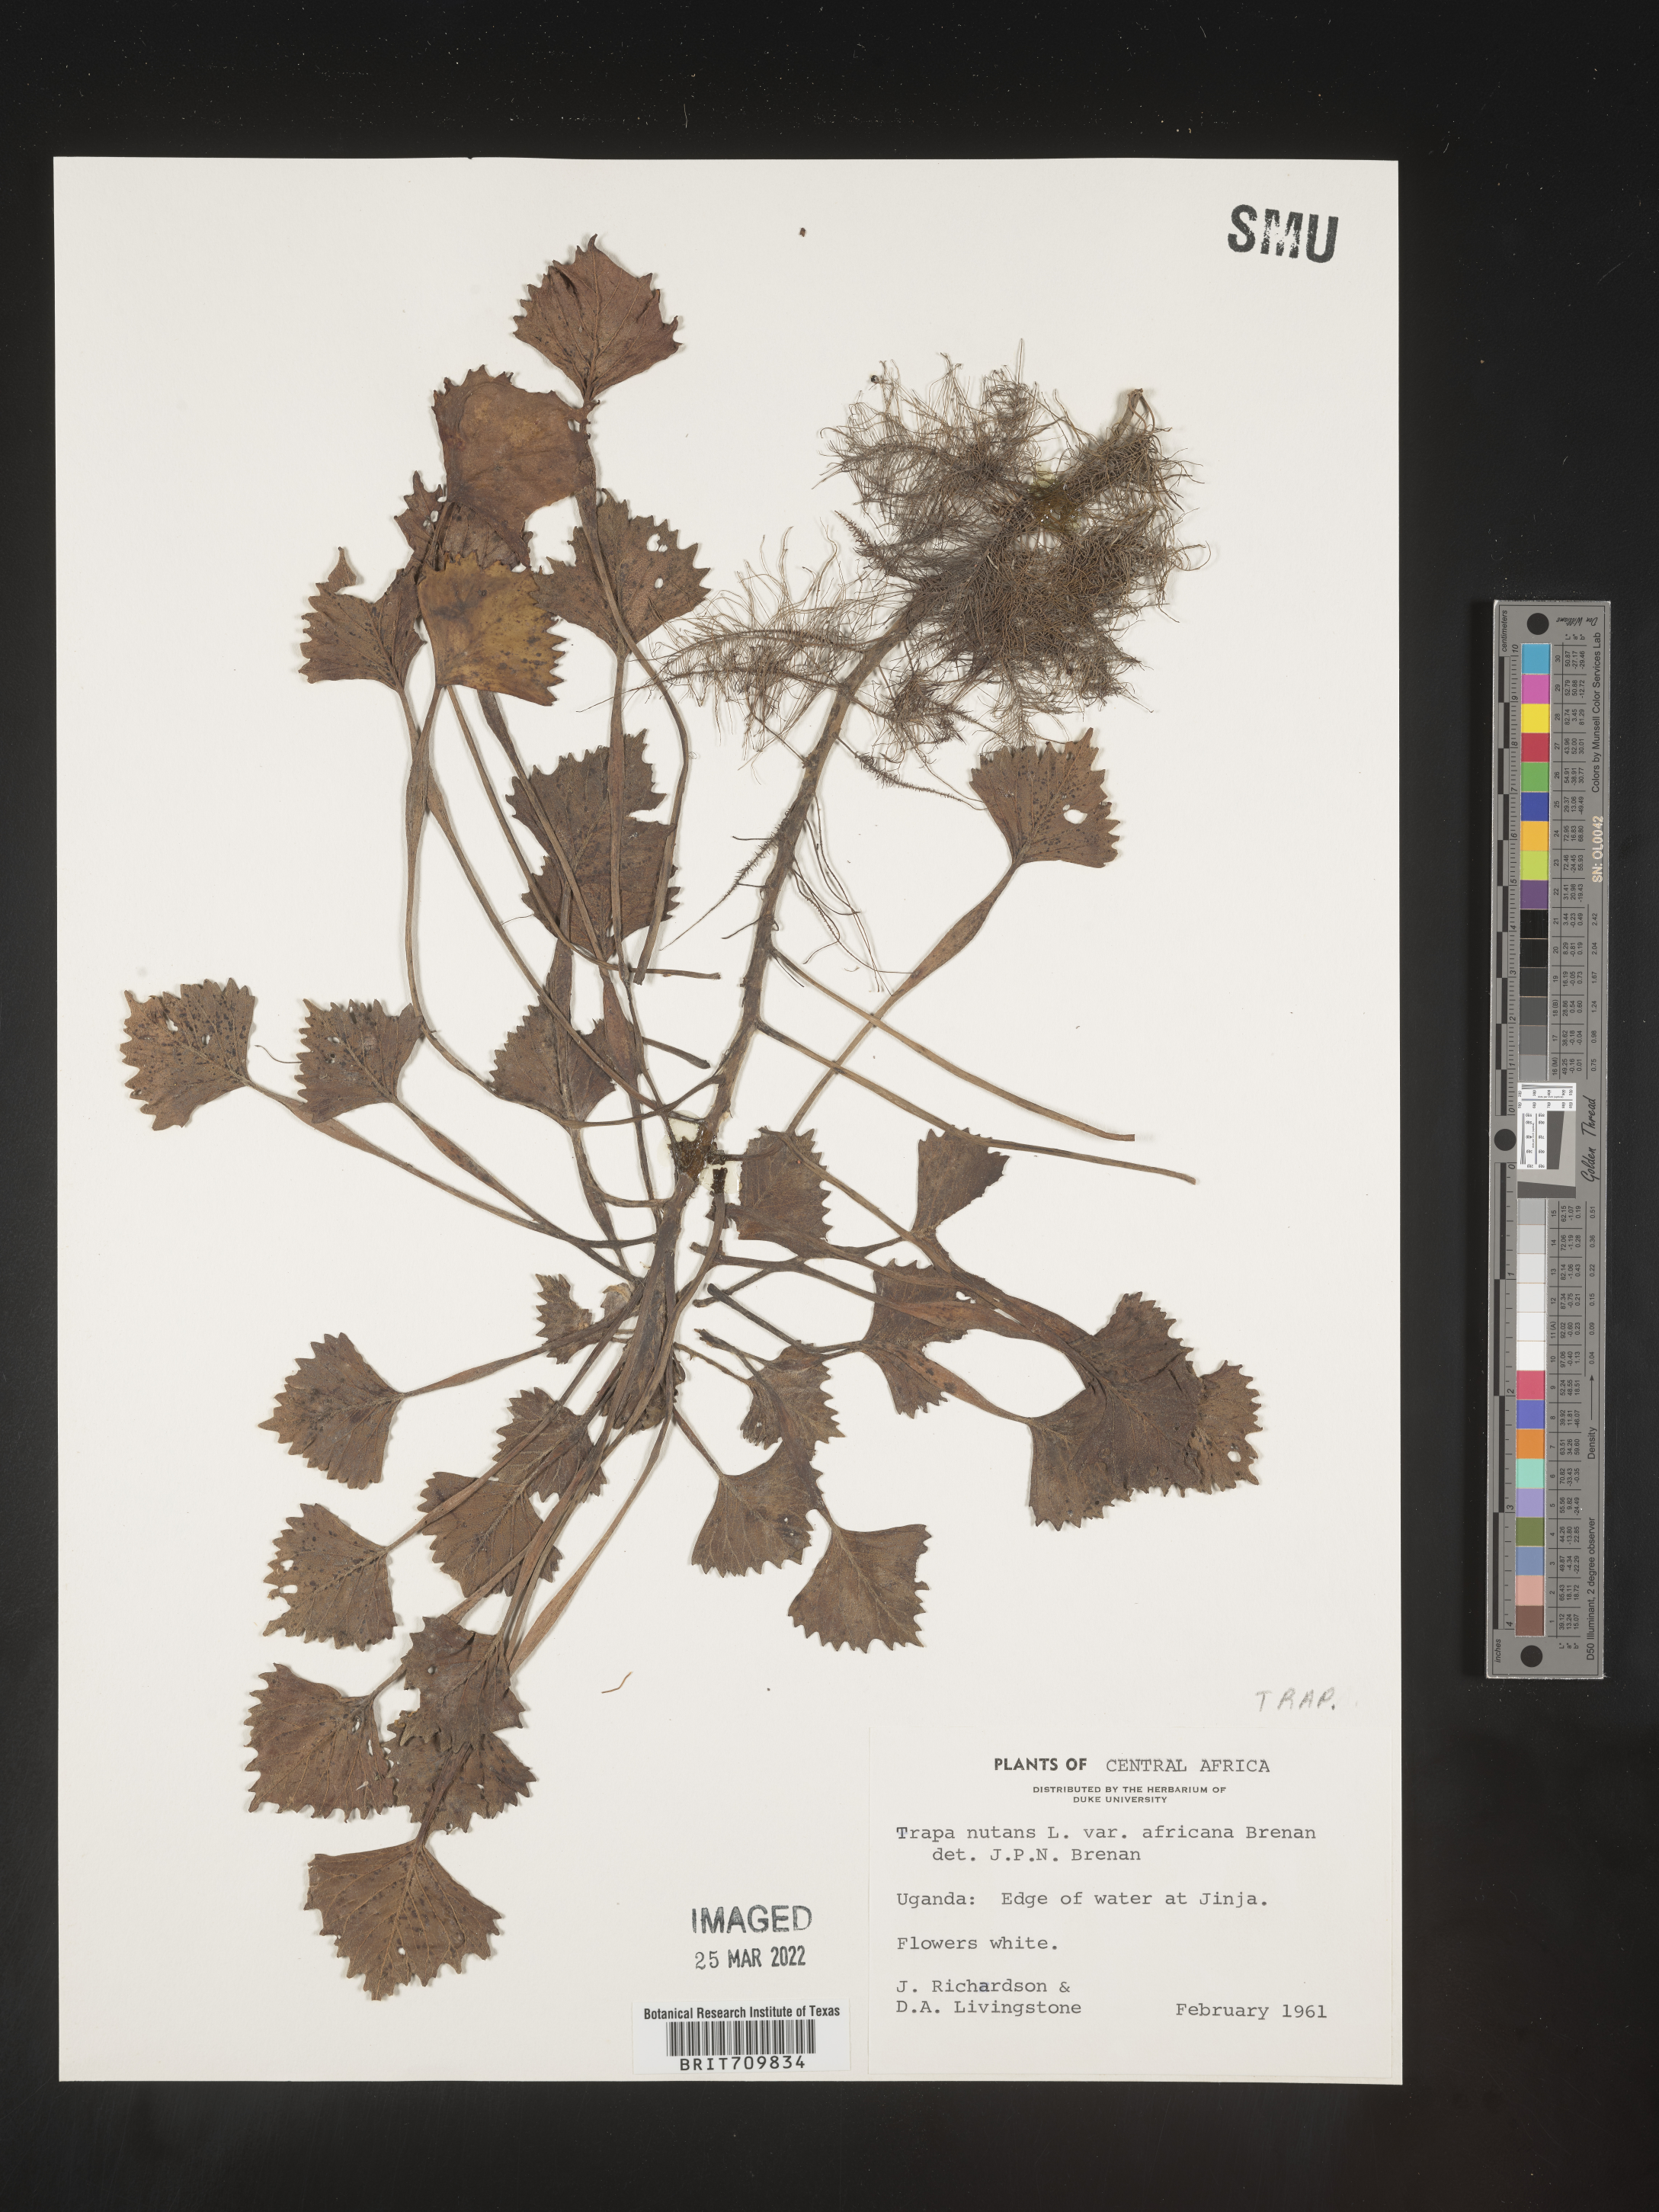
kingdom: Plantae
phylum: Tracheophyta
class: Magnoliopsida
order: Myrtales
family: Lythraceae
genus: Trapa
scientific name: Trapa
